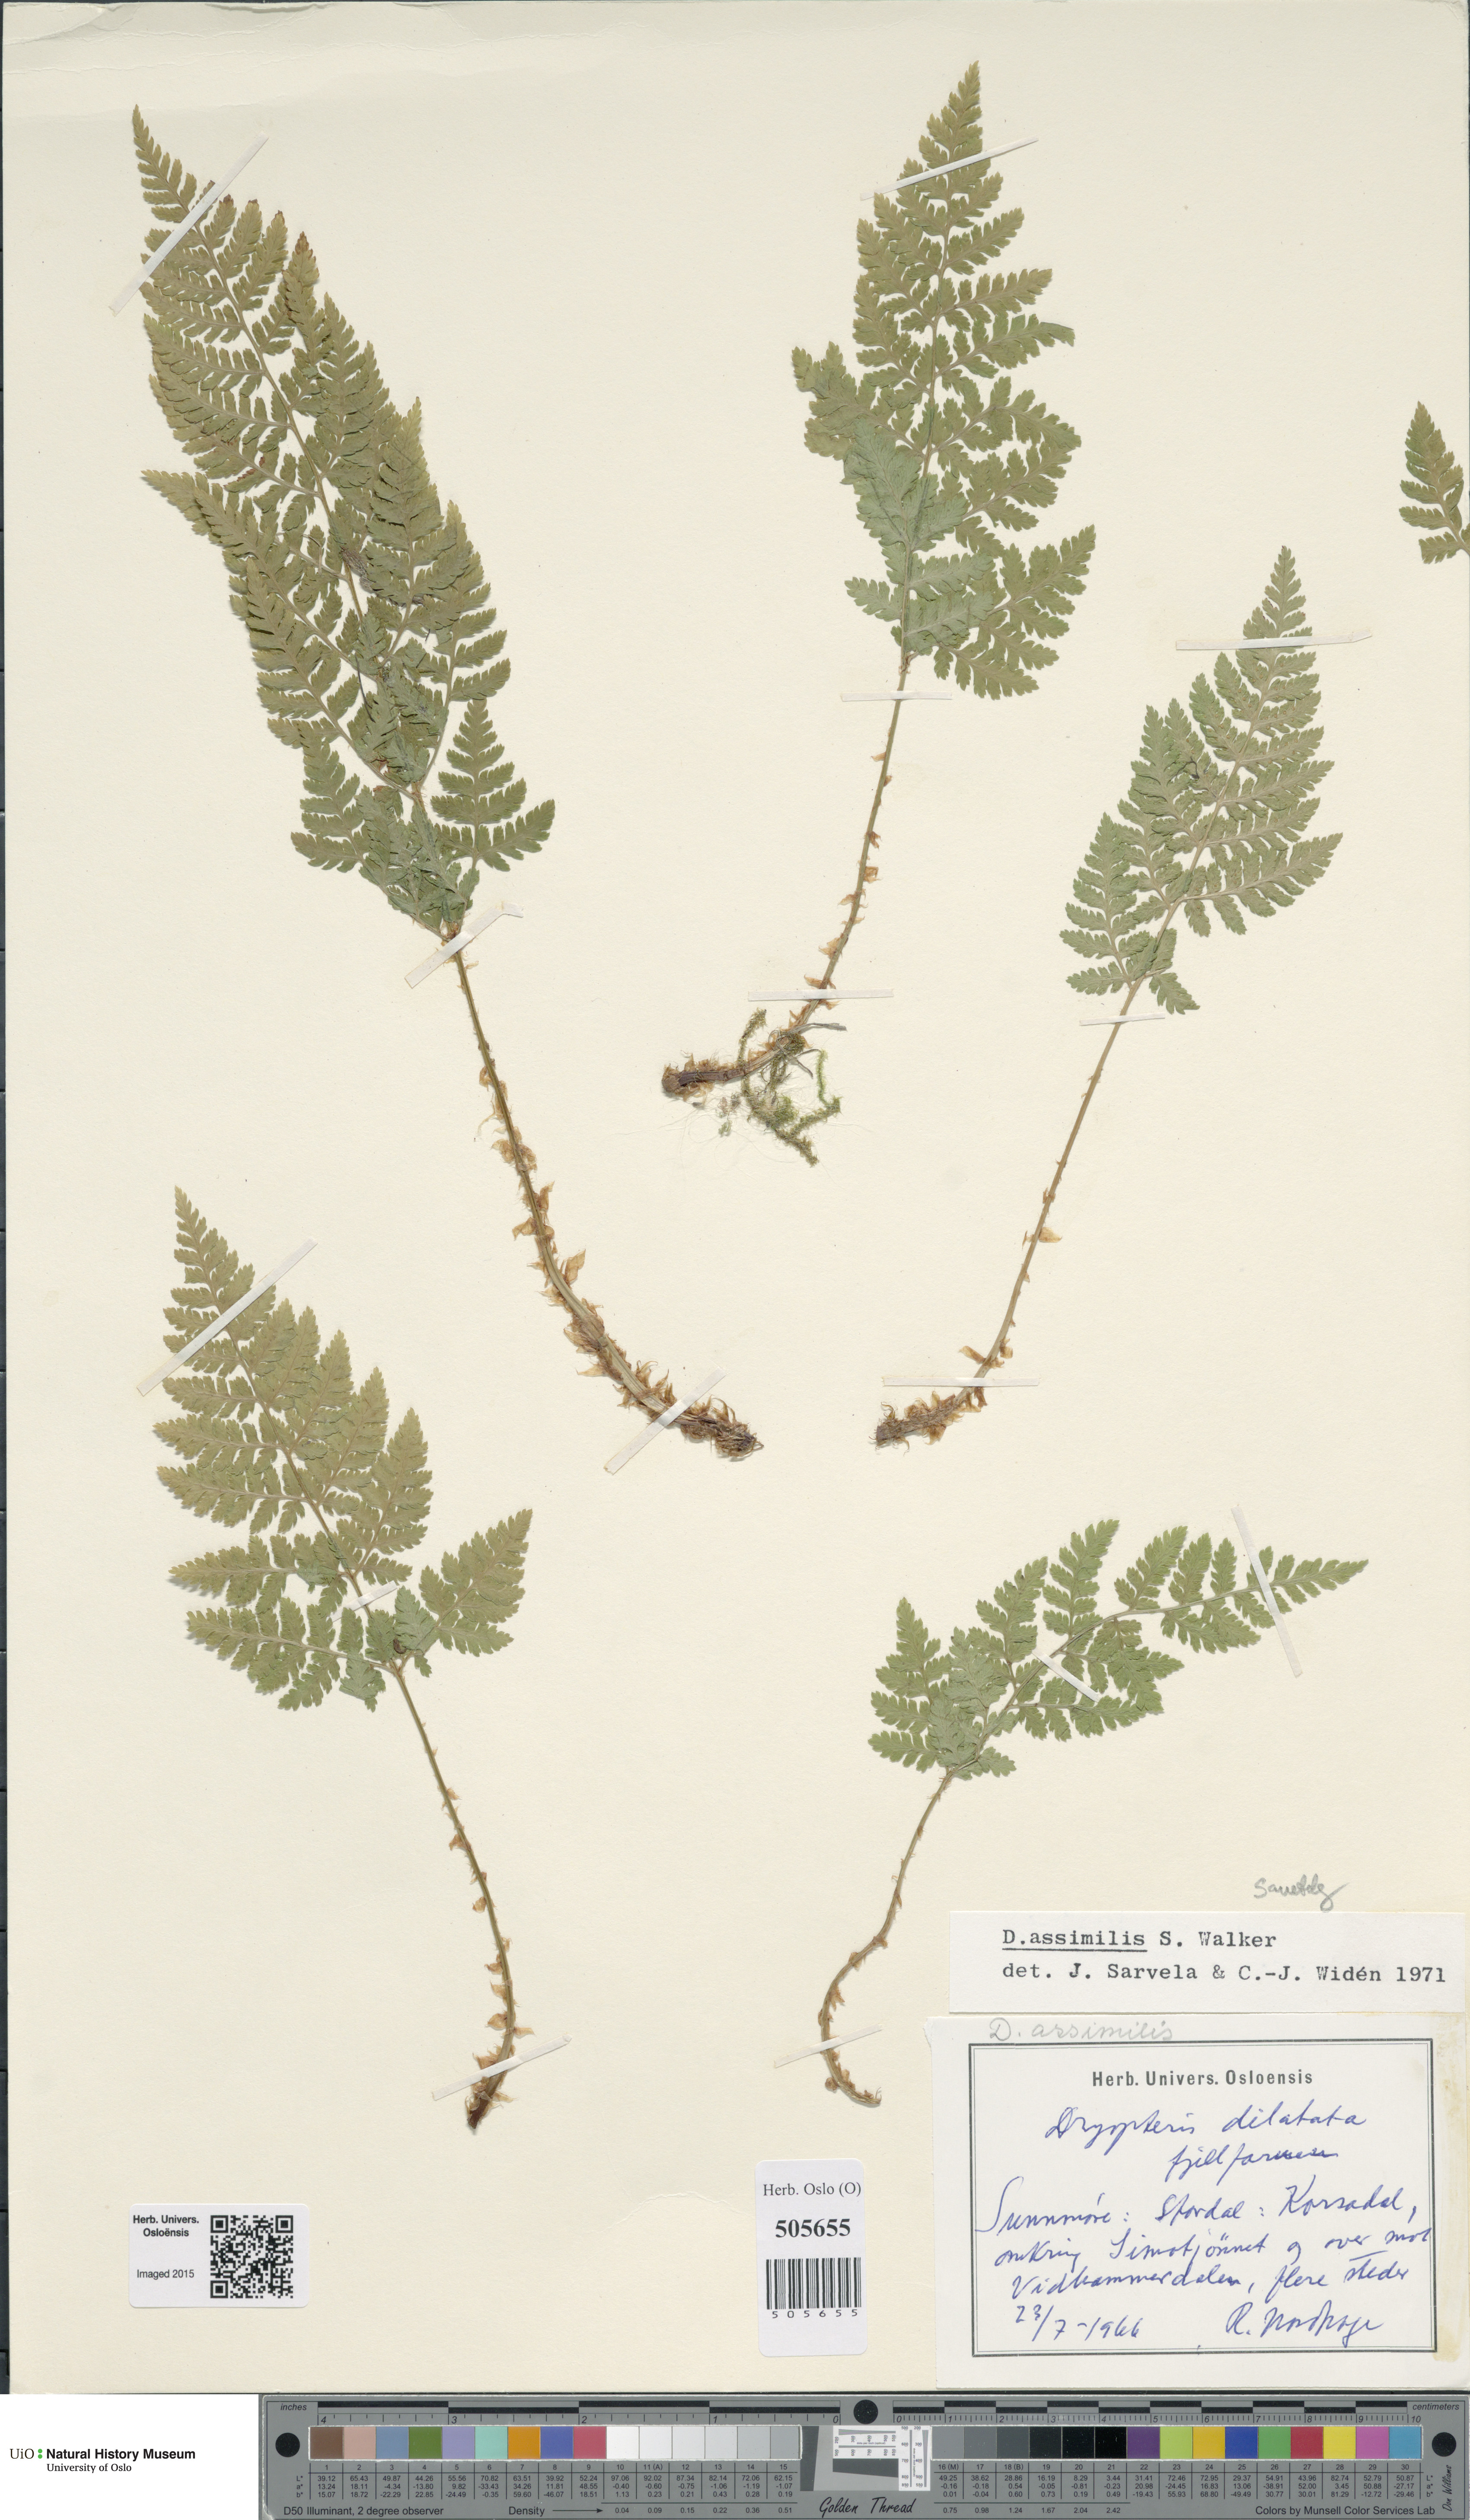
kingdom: Plantae
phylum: Tracheophyta
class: Polypodiopsida
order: Polypodiales
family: Dryopteridaceae
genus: Dryopteris
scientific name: Dryopteris expansa
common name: Northern buckler fern
